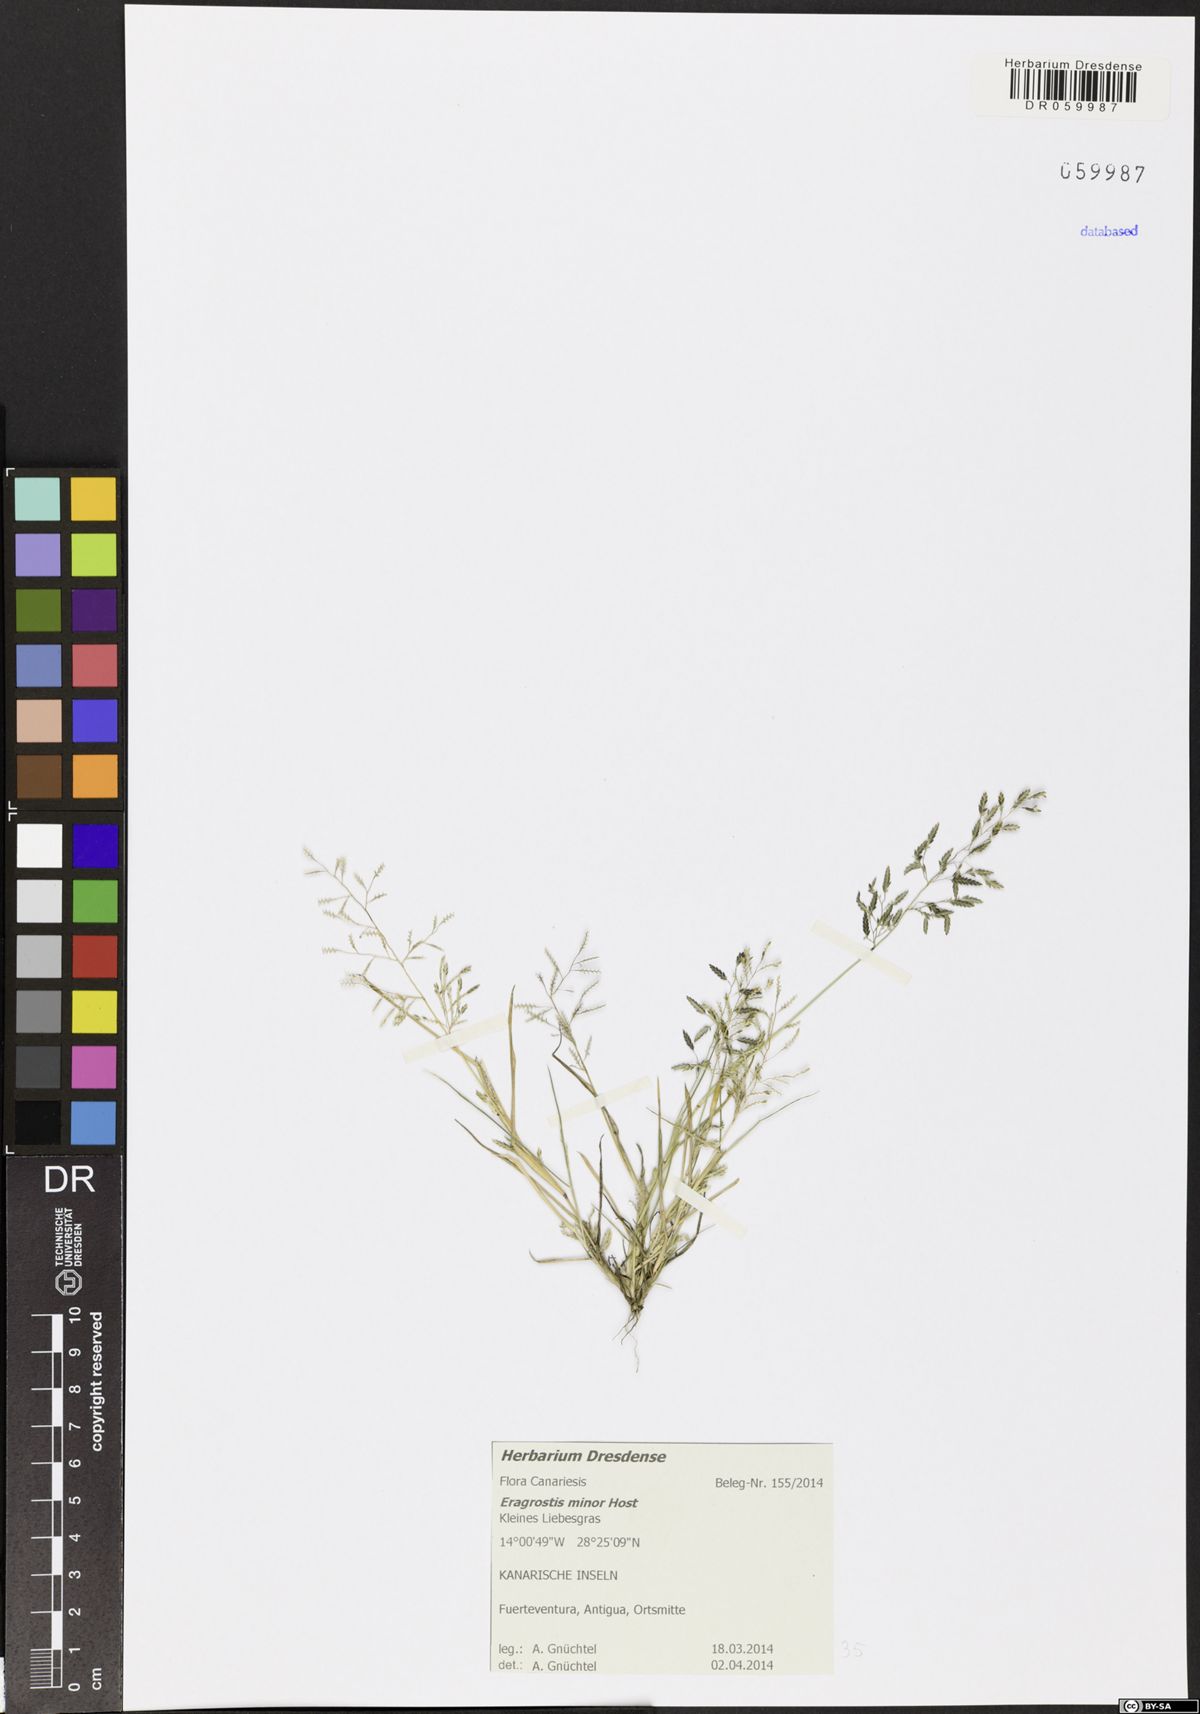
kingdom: Plantae
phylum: Tracheophyta
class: Liliopsida
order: Poales
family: Poaceae
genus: Eragrostis
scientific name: Eragrostis minor
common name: Small love-grass
